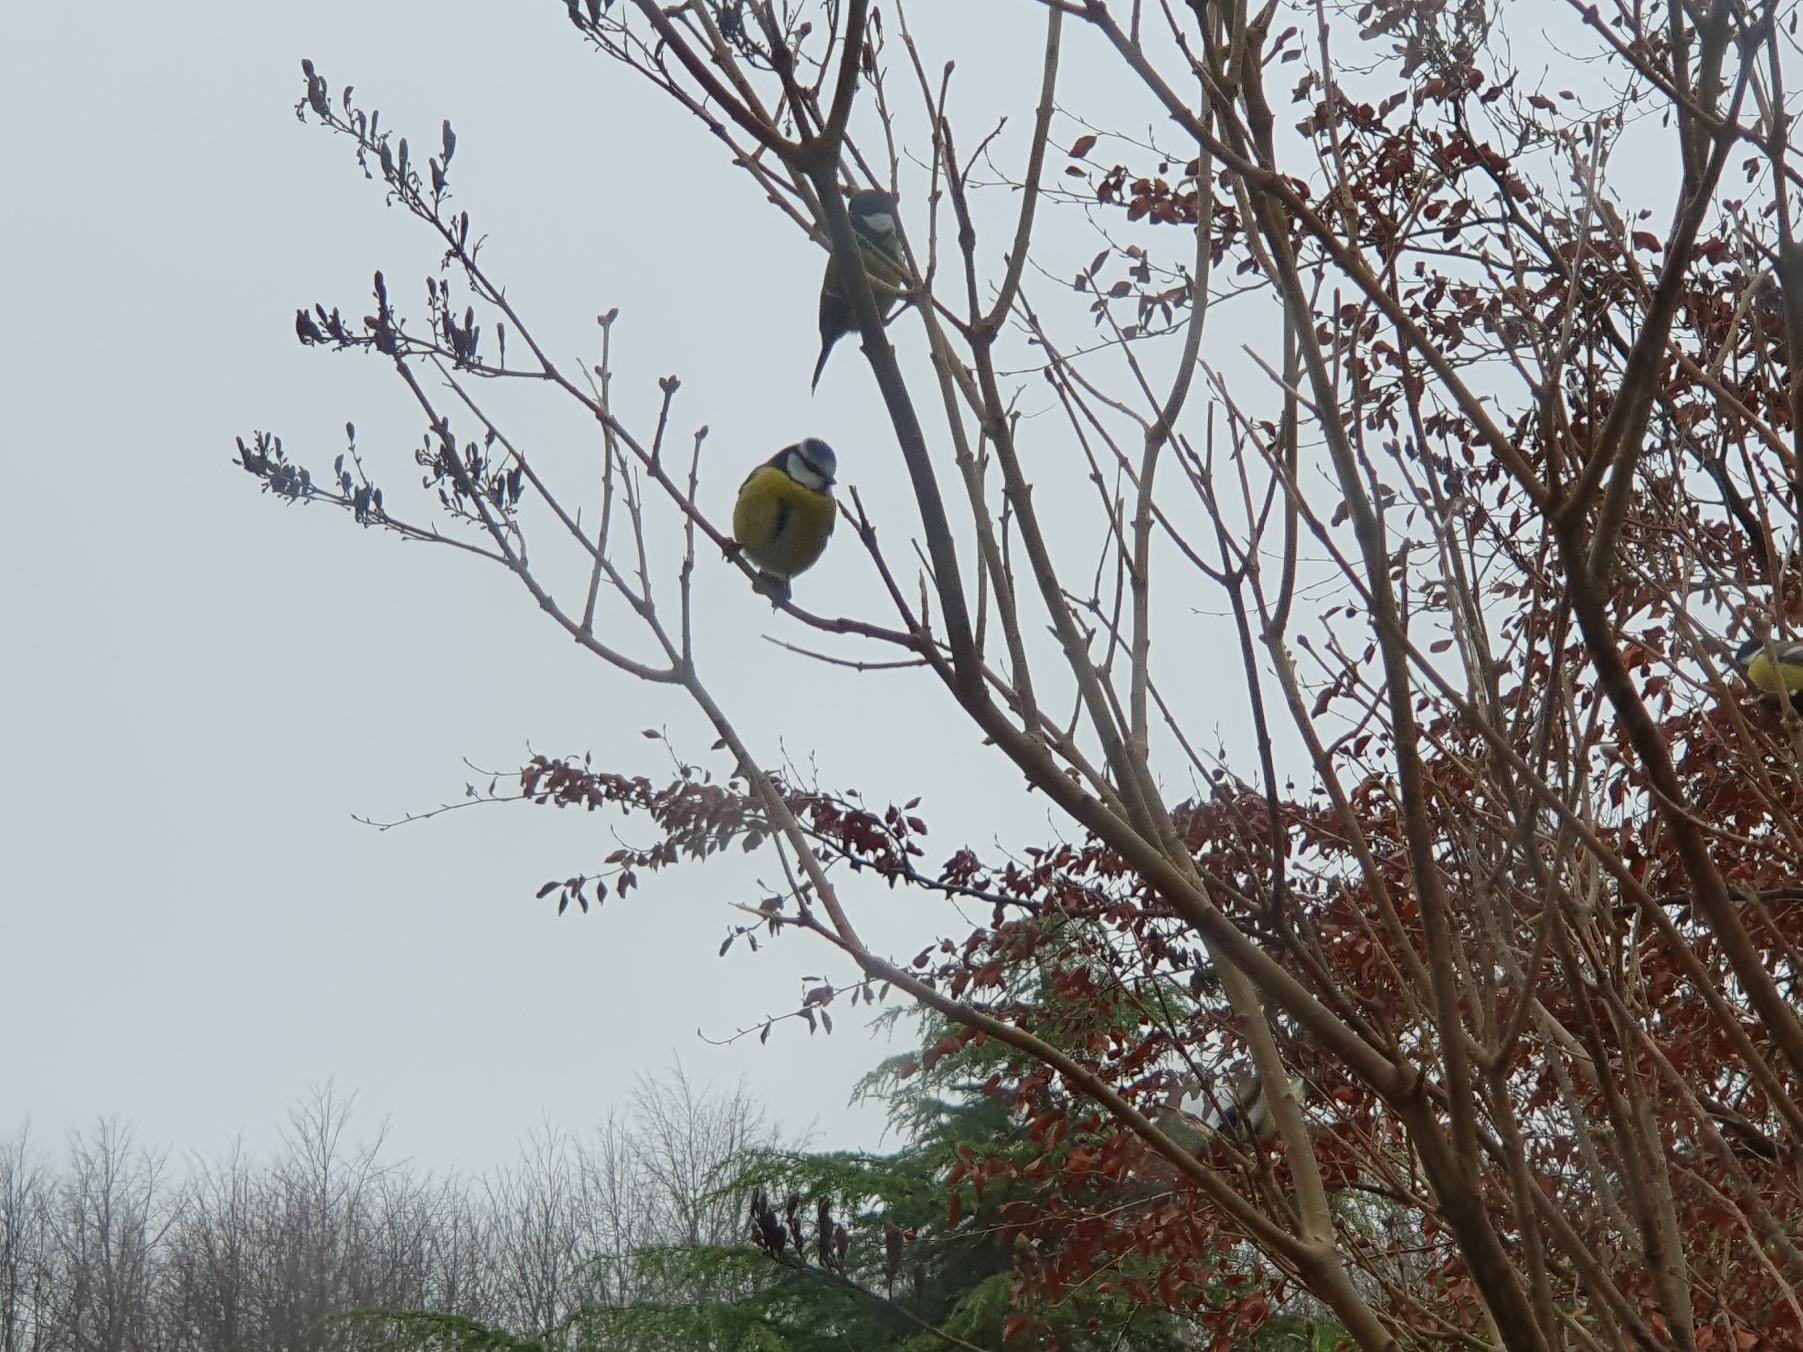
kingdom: Animalia
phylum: Chordata
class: Aves
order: Passeriformes
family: Paridae
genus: Cyanistes
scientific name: Cyanistes caeruleus
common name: Blåmejse
